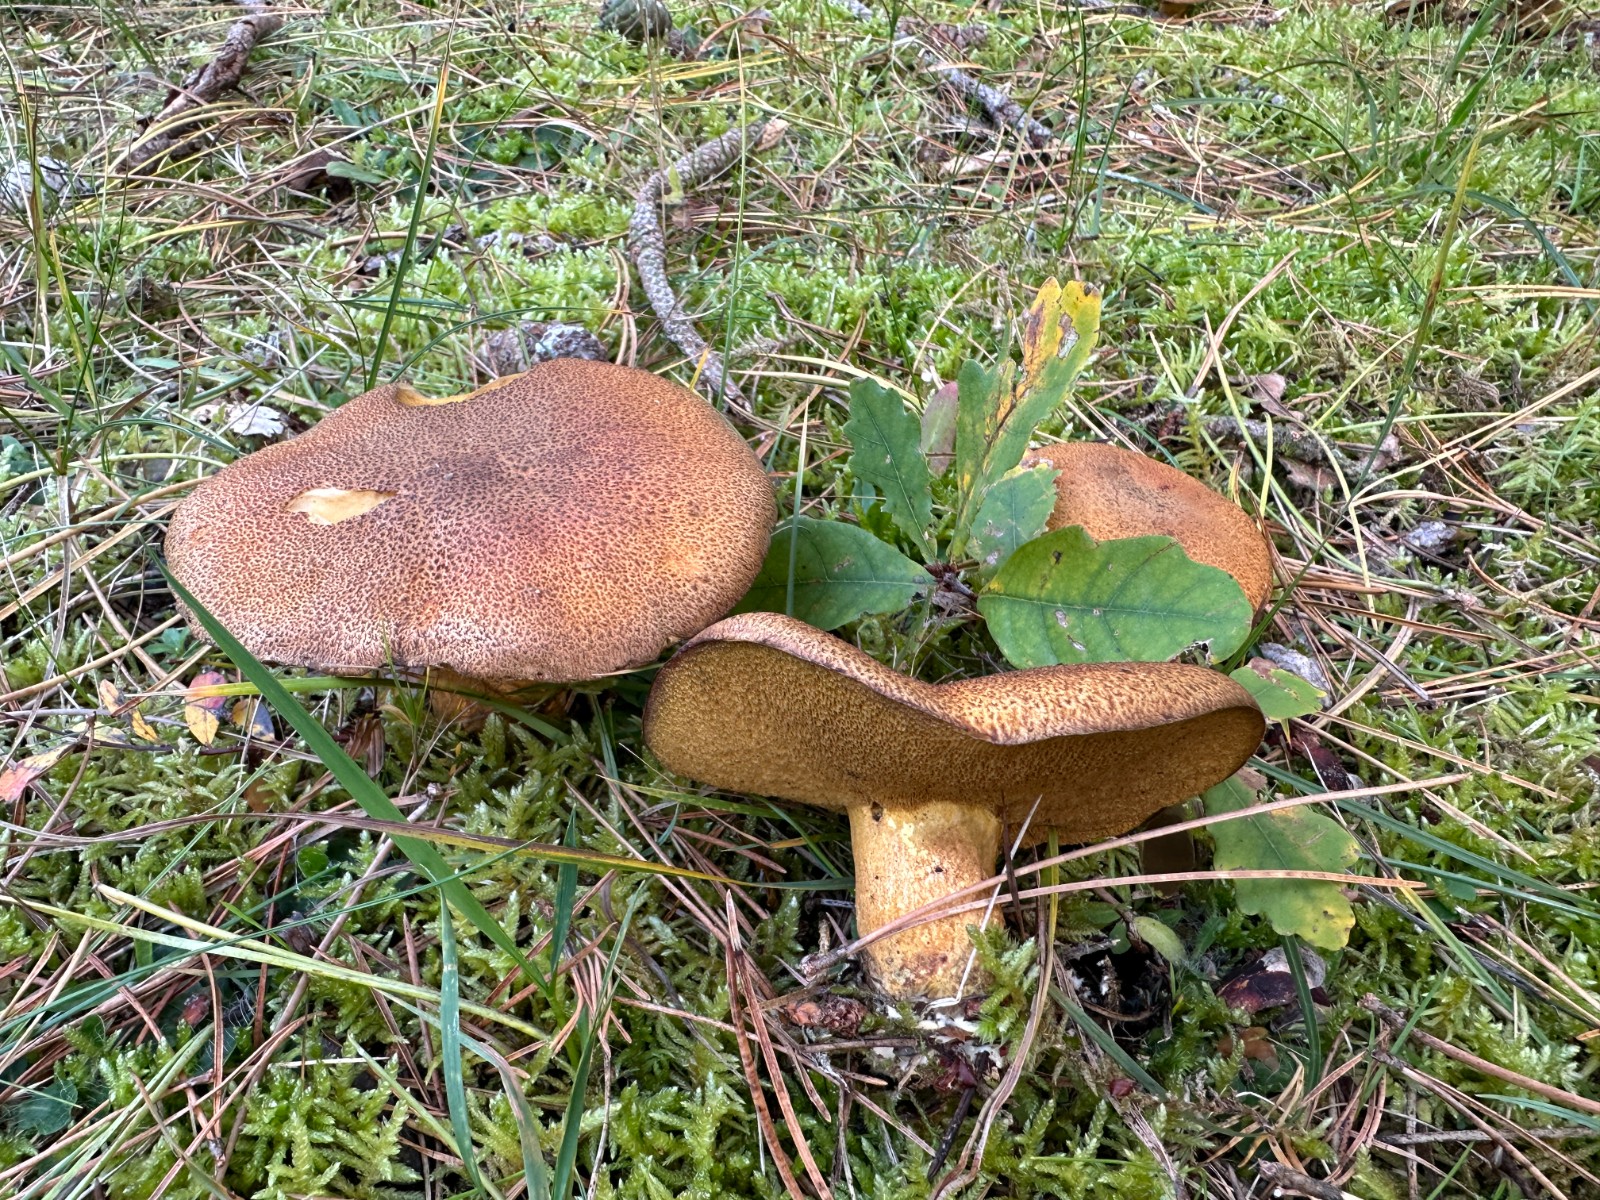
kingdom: Fungi
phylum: Basidiomycota
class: Agaricomycetes
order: Boletales
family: Suillaceae
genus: Suillus
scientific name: Suillus variegatus
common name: broget slimrørhat
